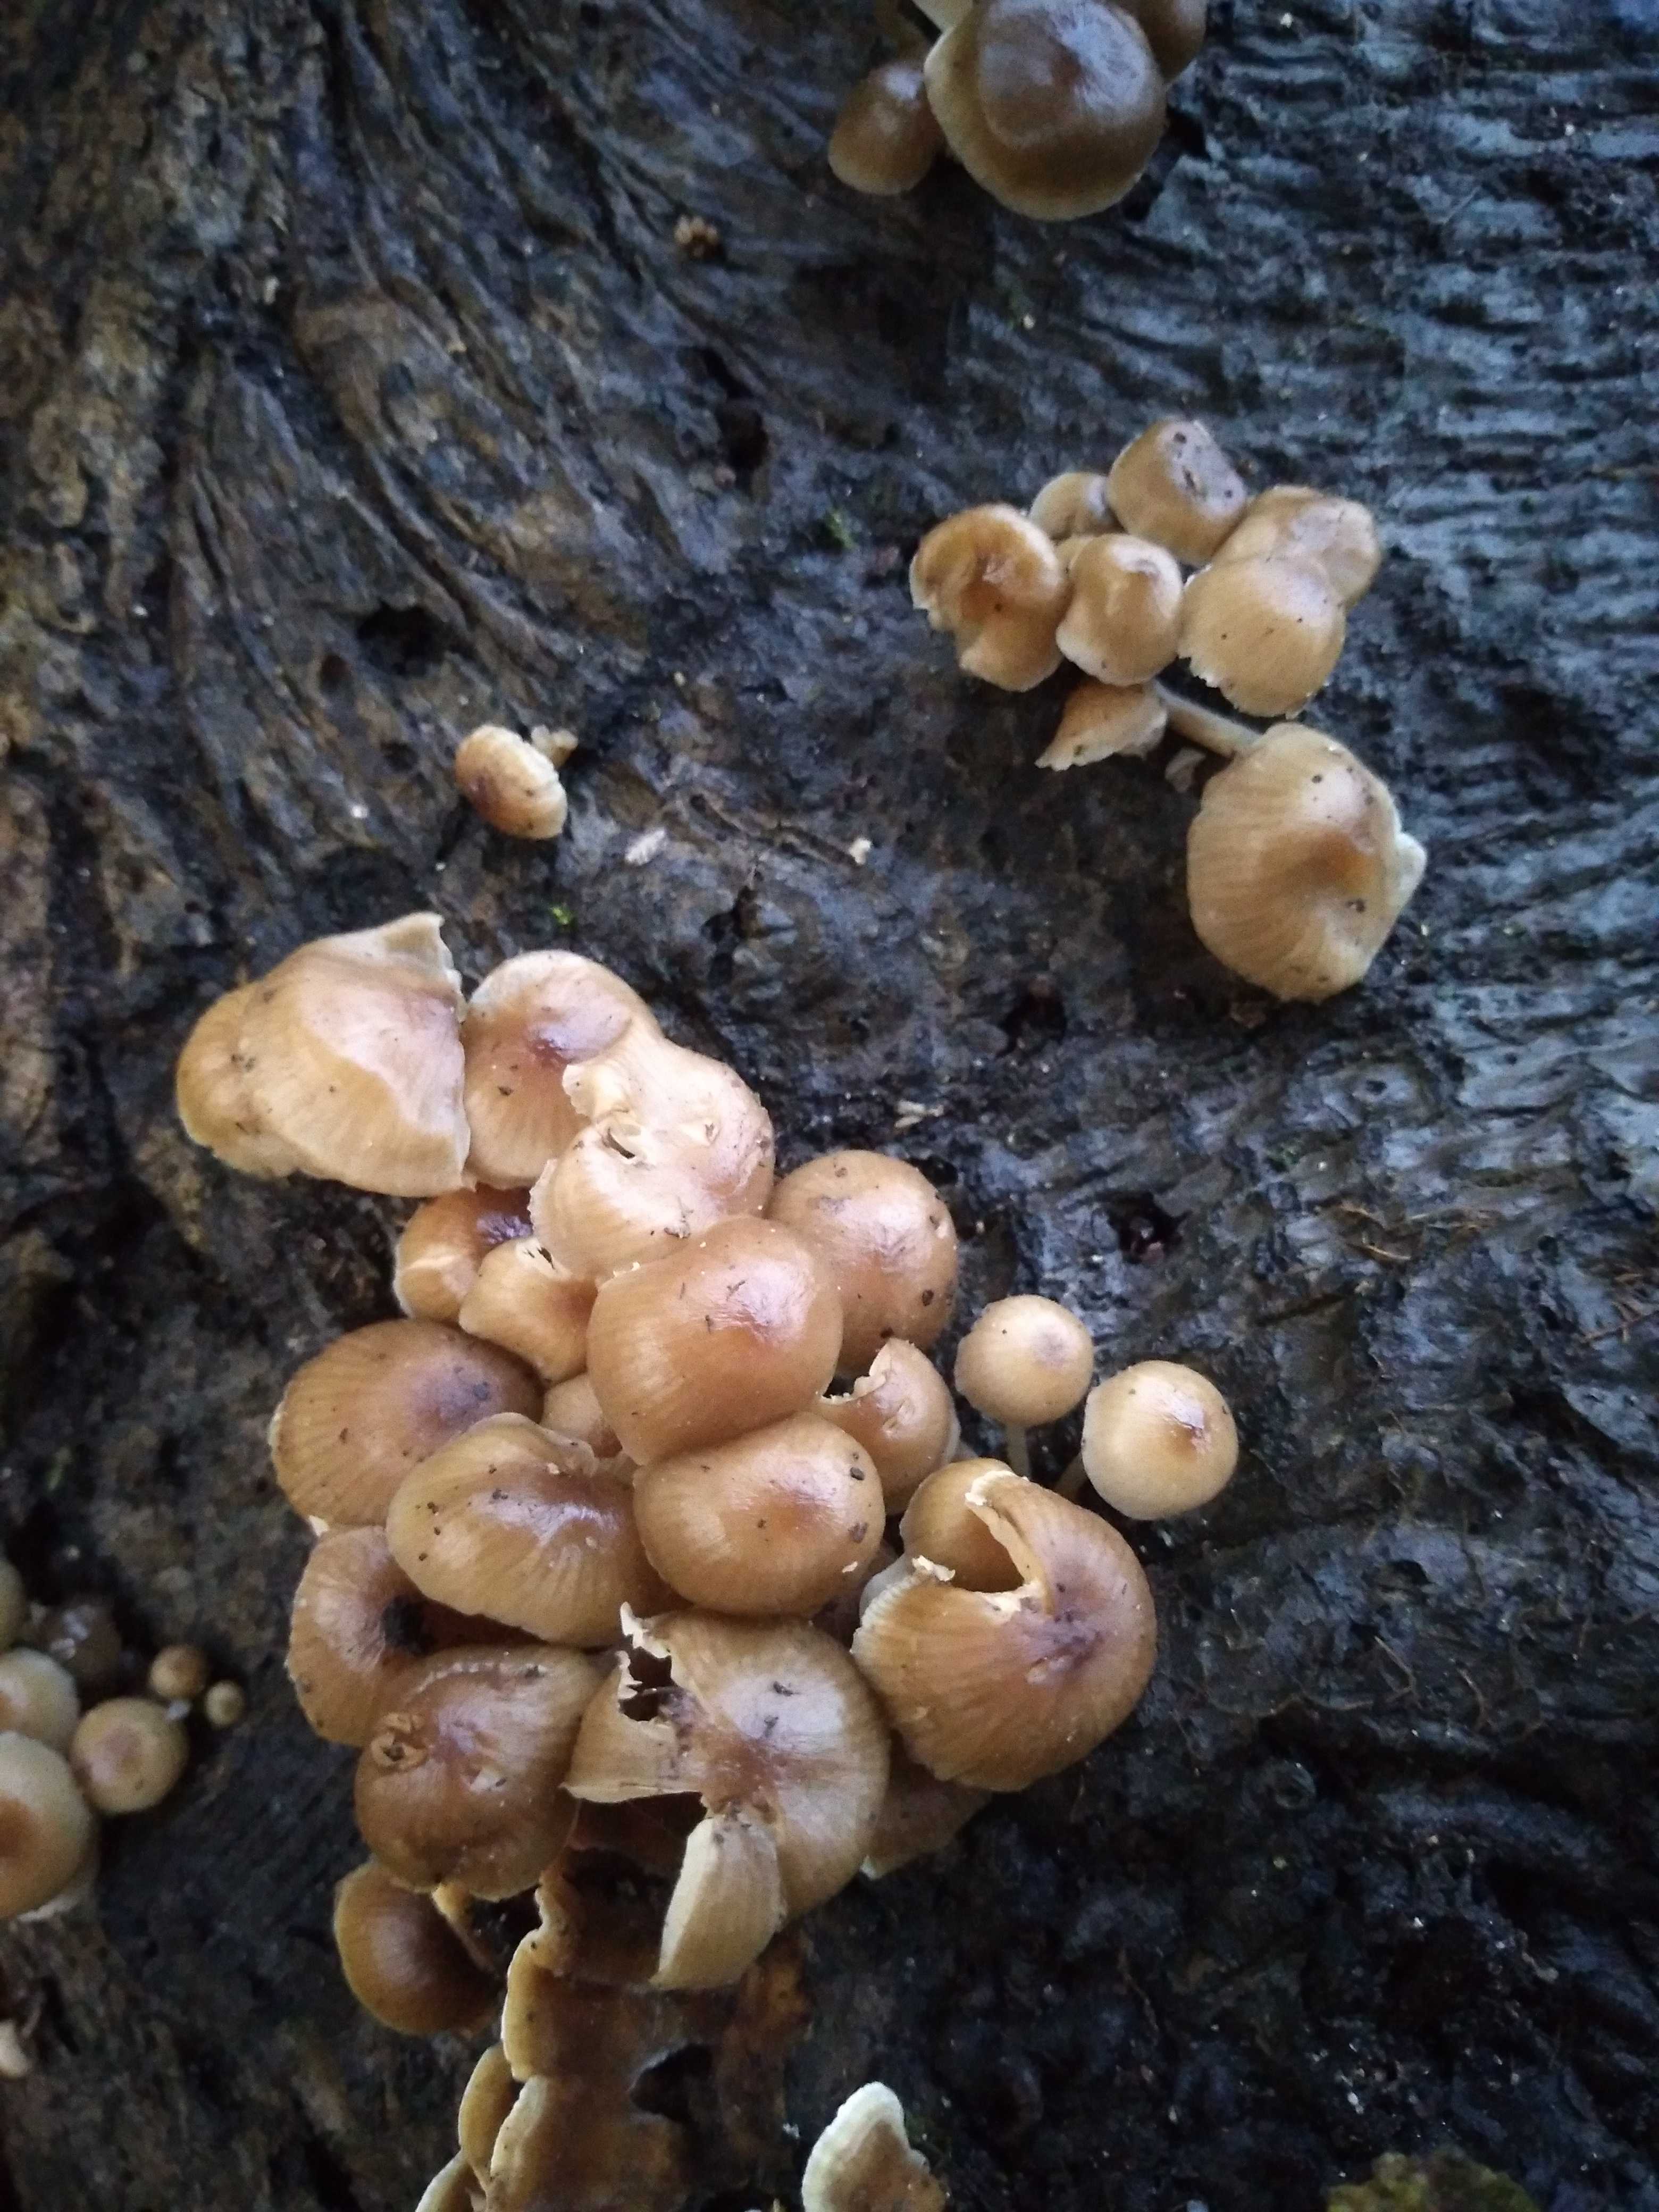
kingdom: Fungi
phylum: Basidiomycota
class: Agaricomycetes
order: Agaricales
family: Mycenaceae
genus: Mycena
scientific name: Mycena tintinnabulum
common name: vinter-huesvamp
